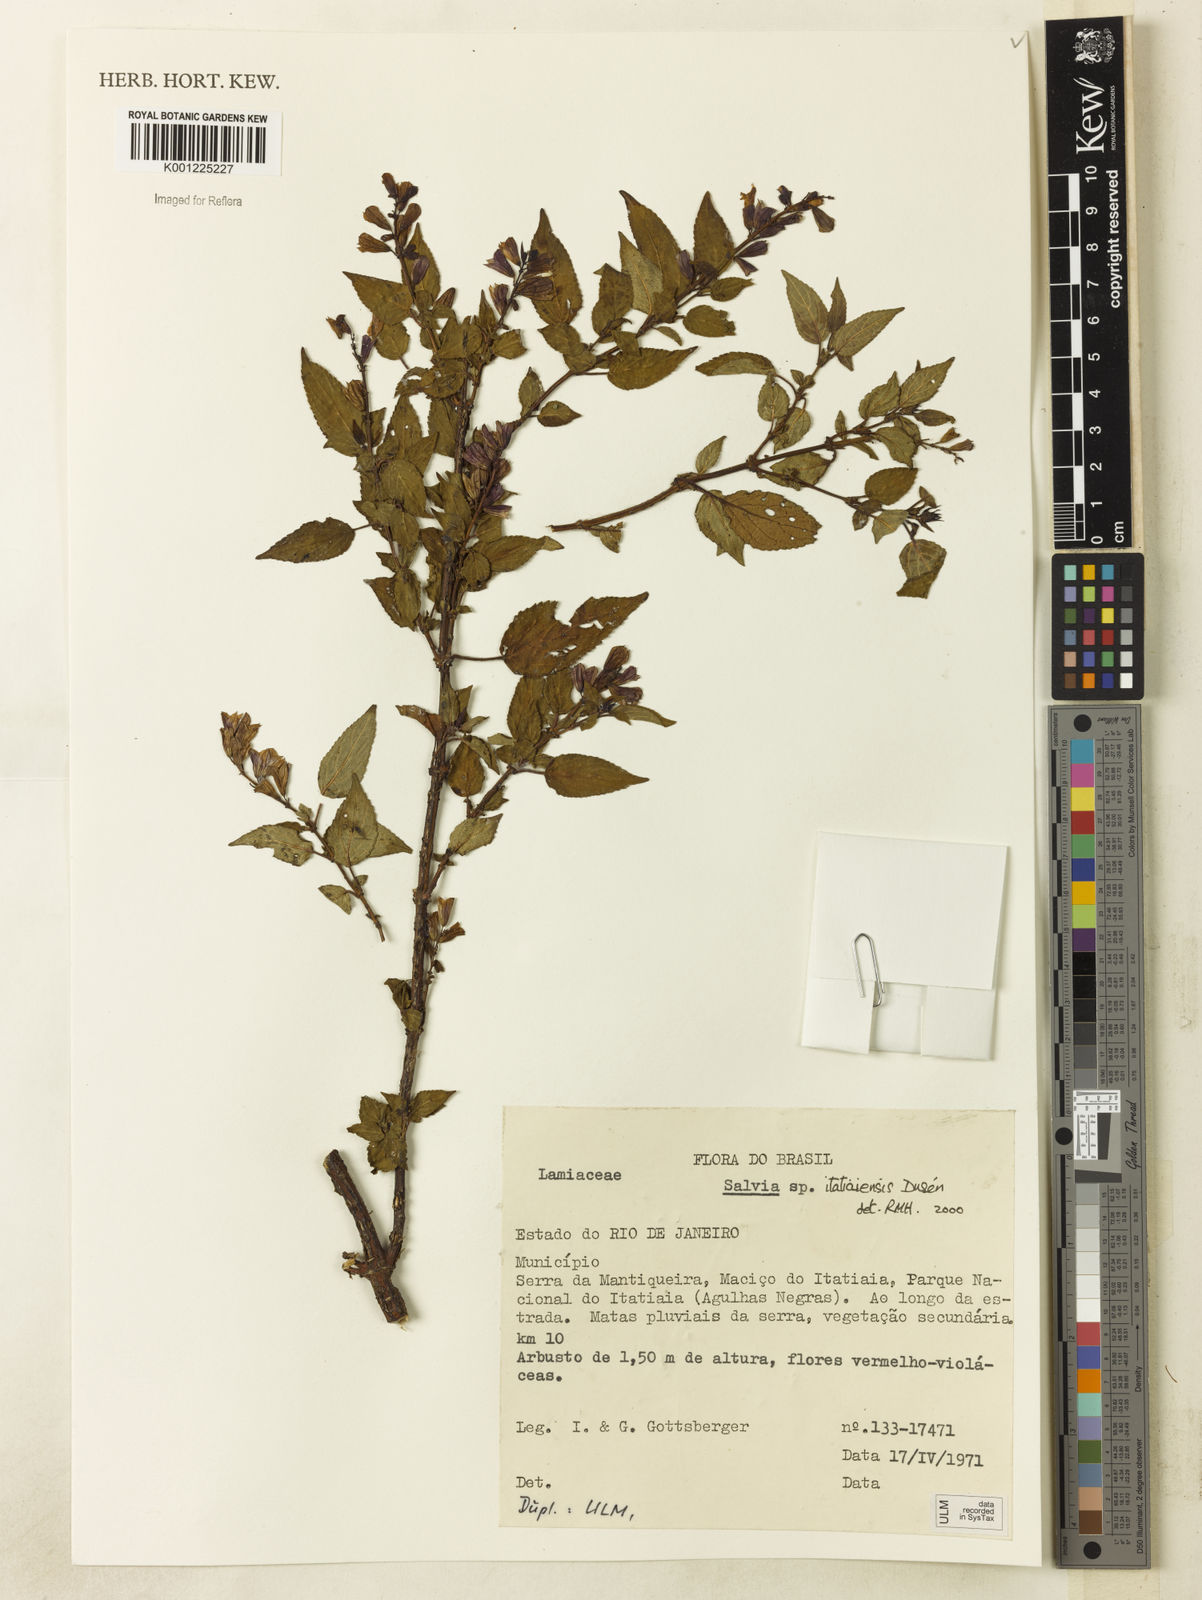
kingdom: Plantae
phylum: Tracheophyta
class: Magnoliopsida
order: Lamiales
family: Lamiaceae
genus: Salvia
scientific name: Salvia
